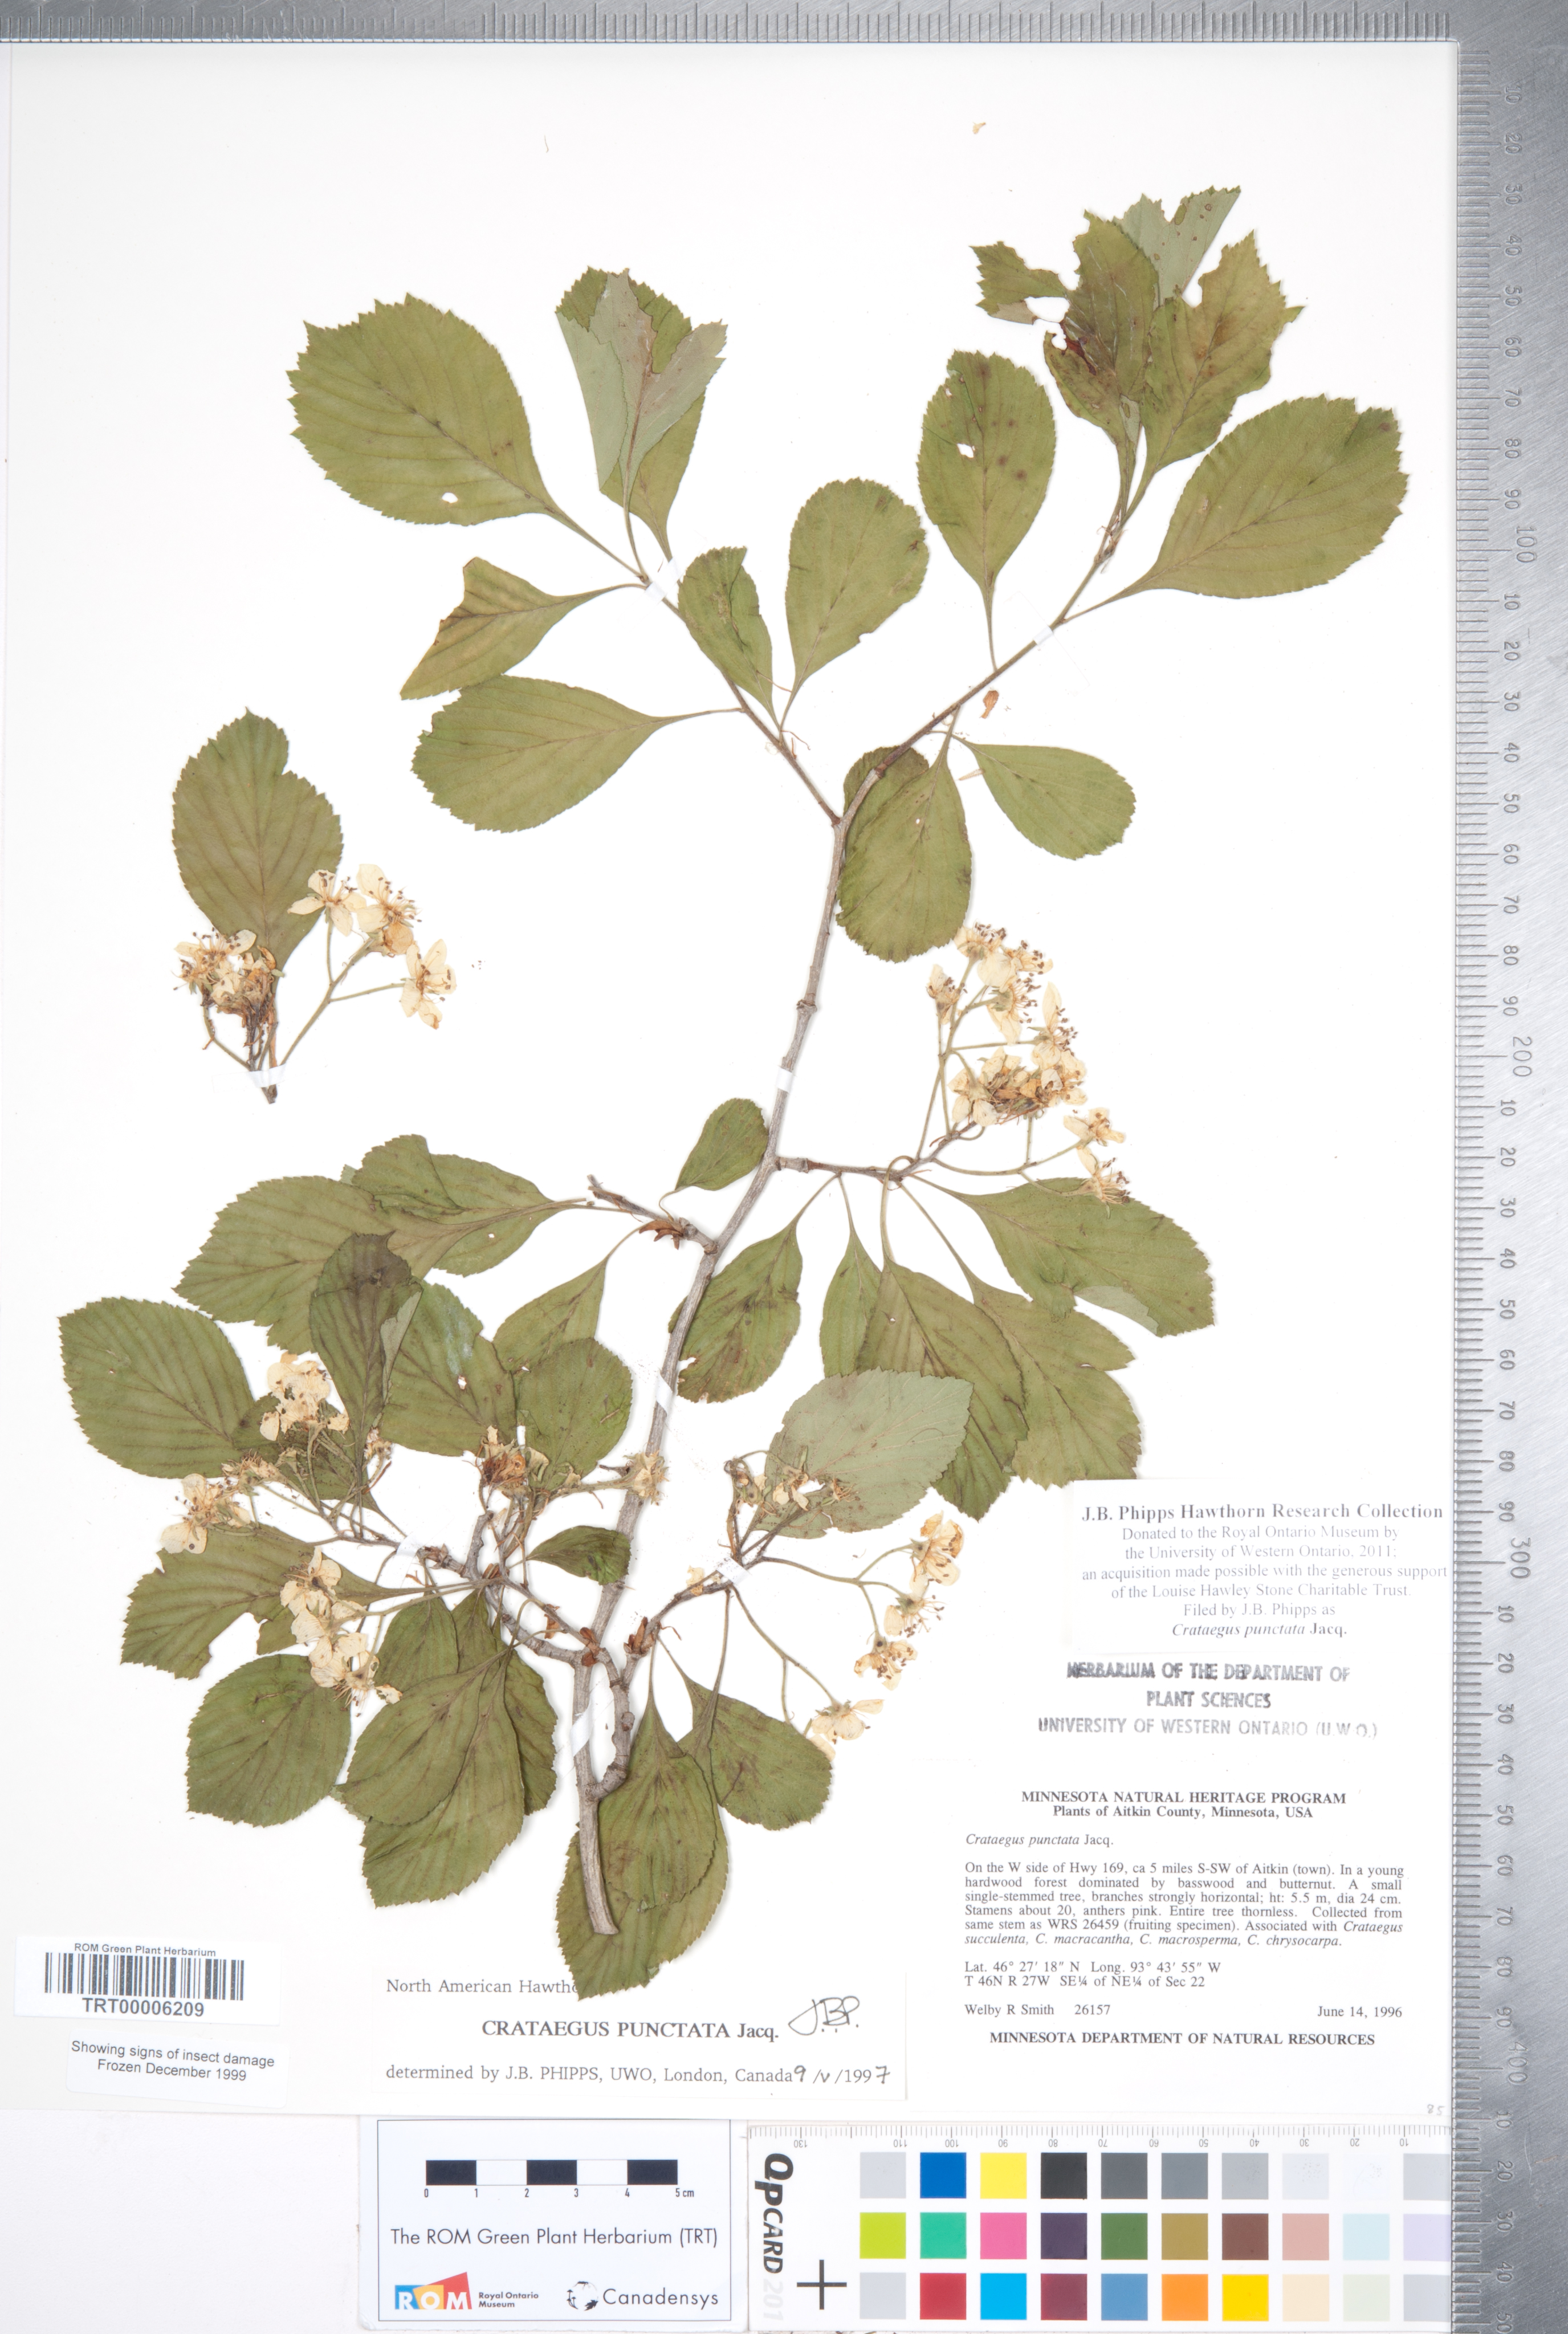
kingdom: Plantae
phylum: Tracheophyta
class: Magnoliopsida
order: Rosales
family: Rosaceae
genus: Crataegus
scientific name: Crataegus punctata
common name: Dotted hawthorn
